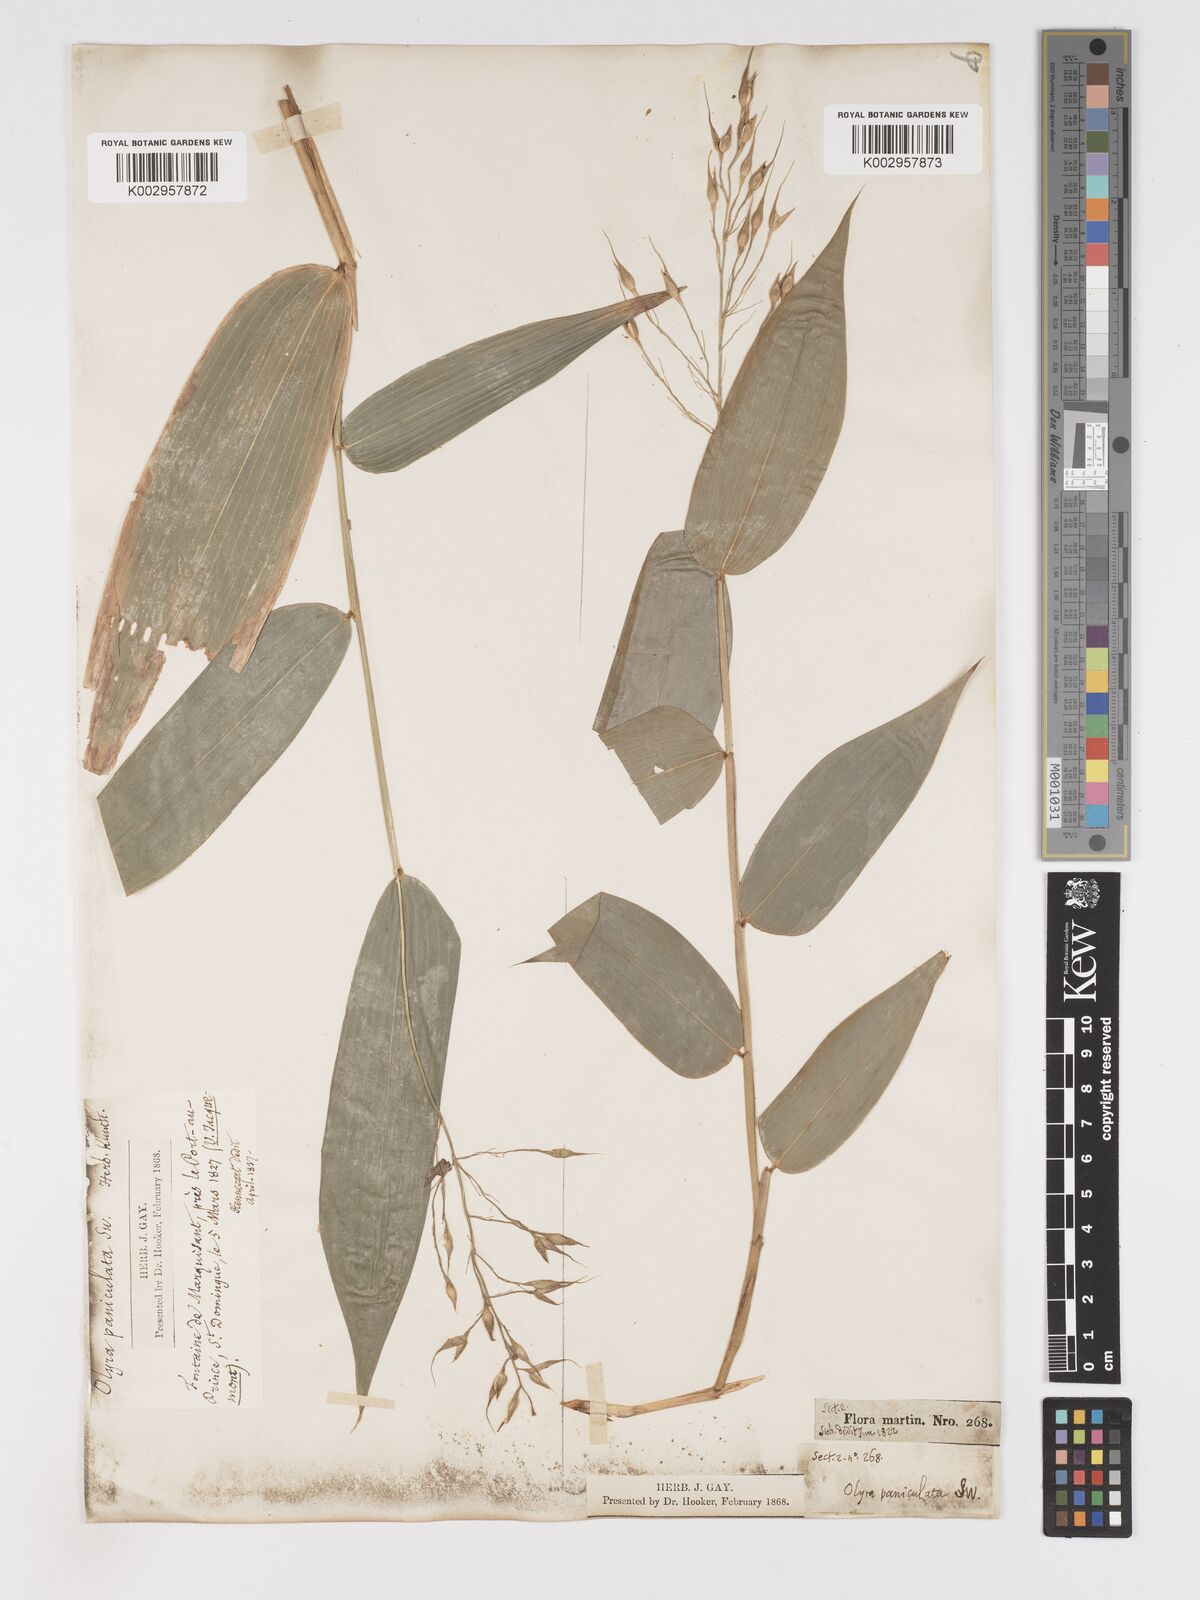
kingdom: Plantae
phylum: Tracheophyta
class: Liliopsida
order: Poales
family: Poaceae
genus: Olyra
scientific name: Olyra latifolia
